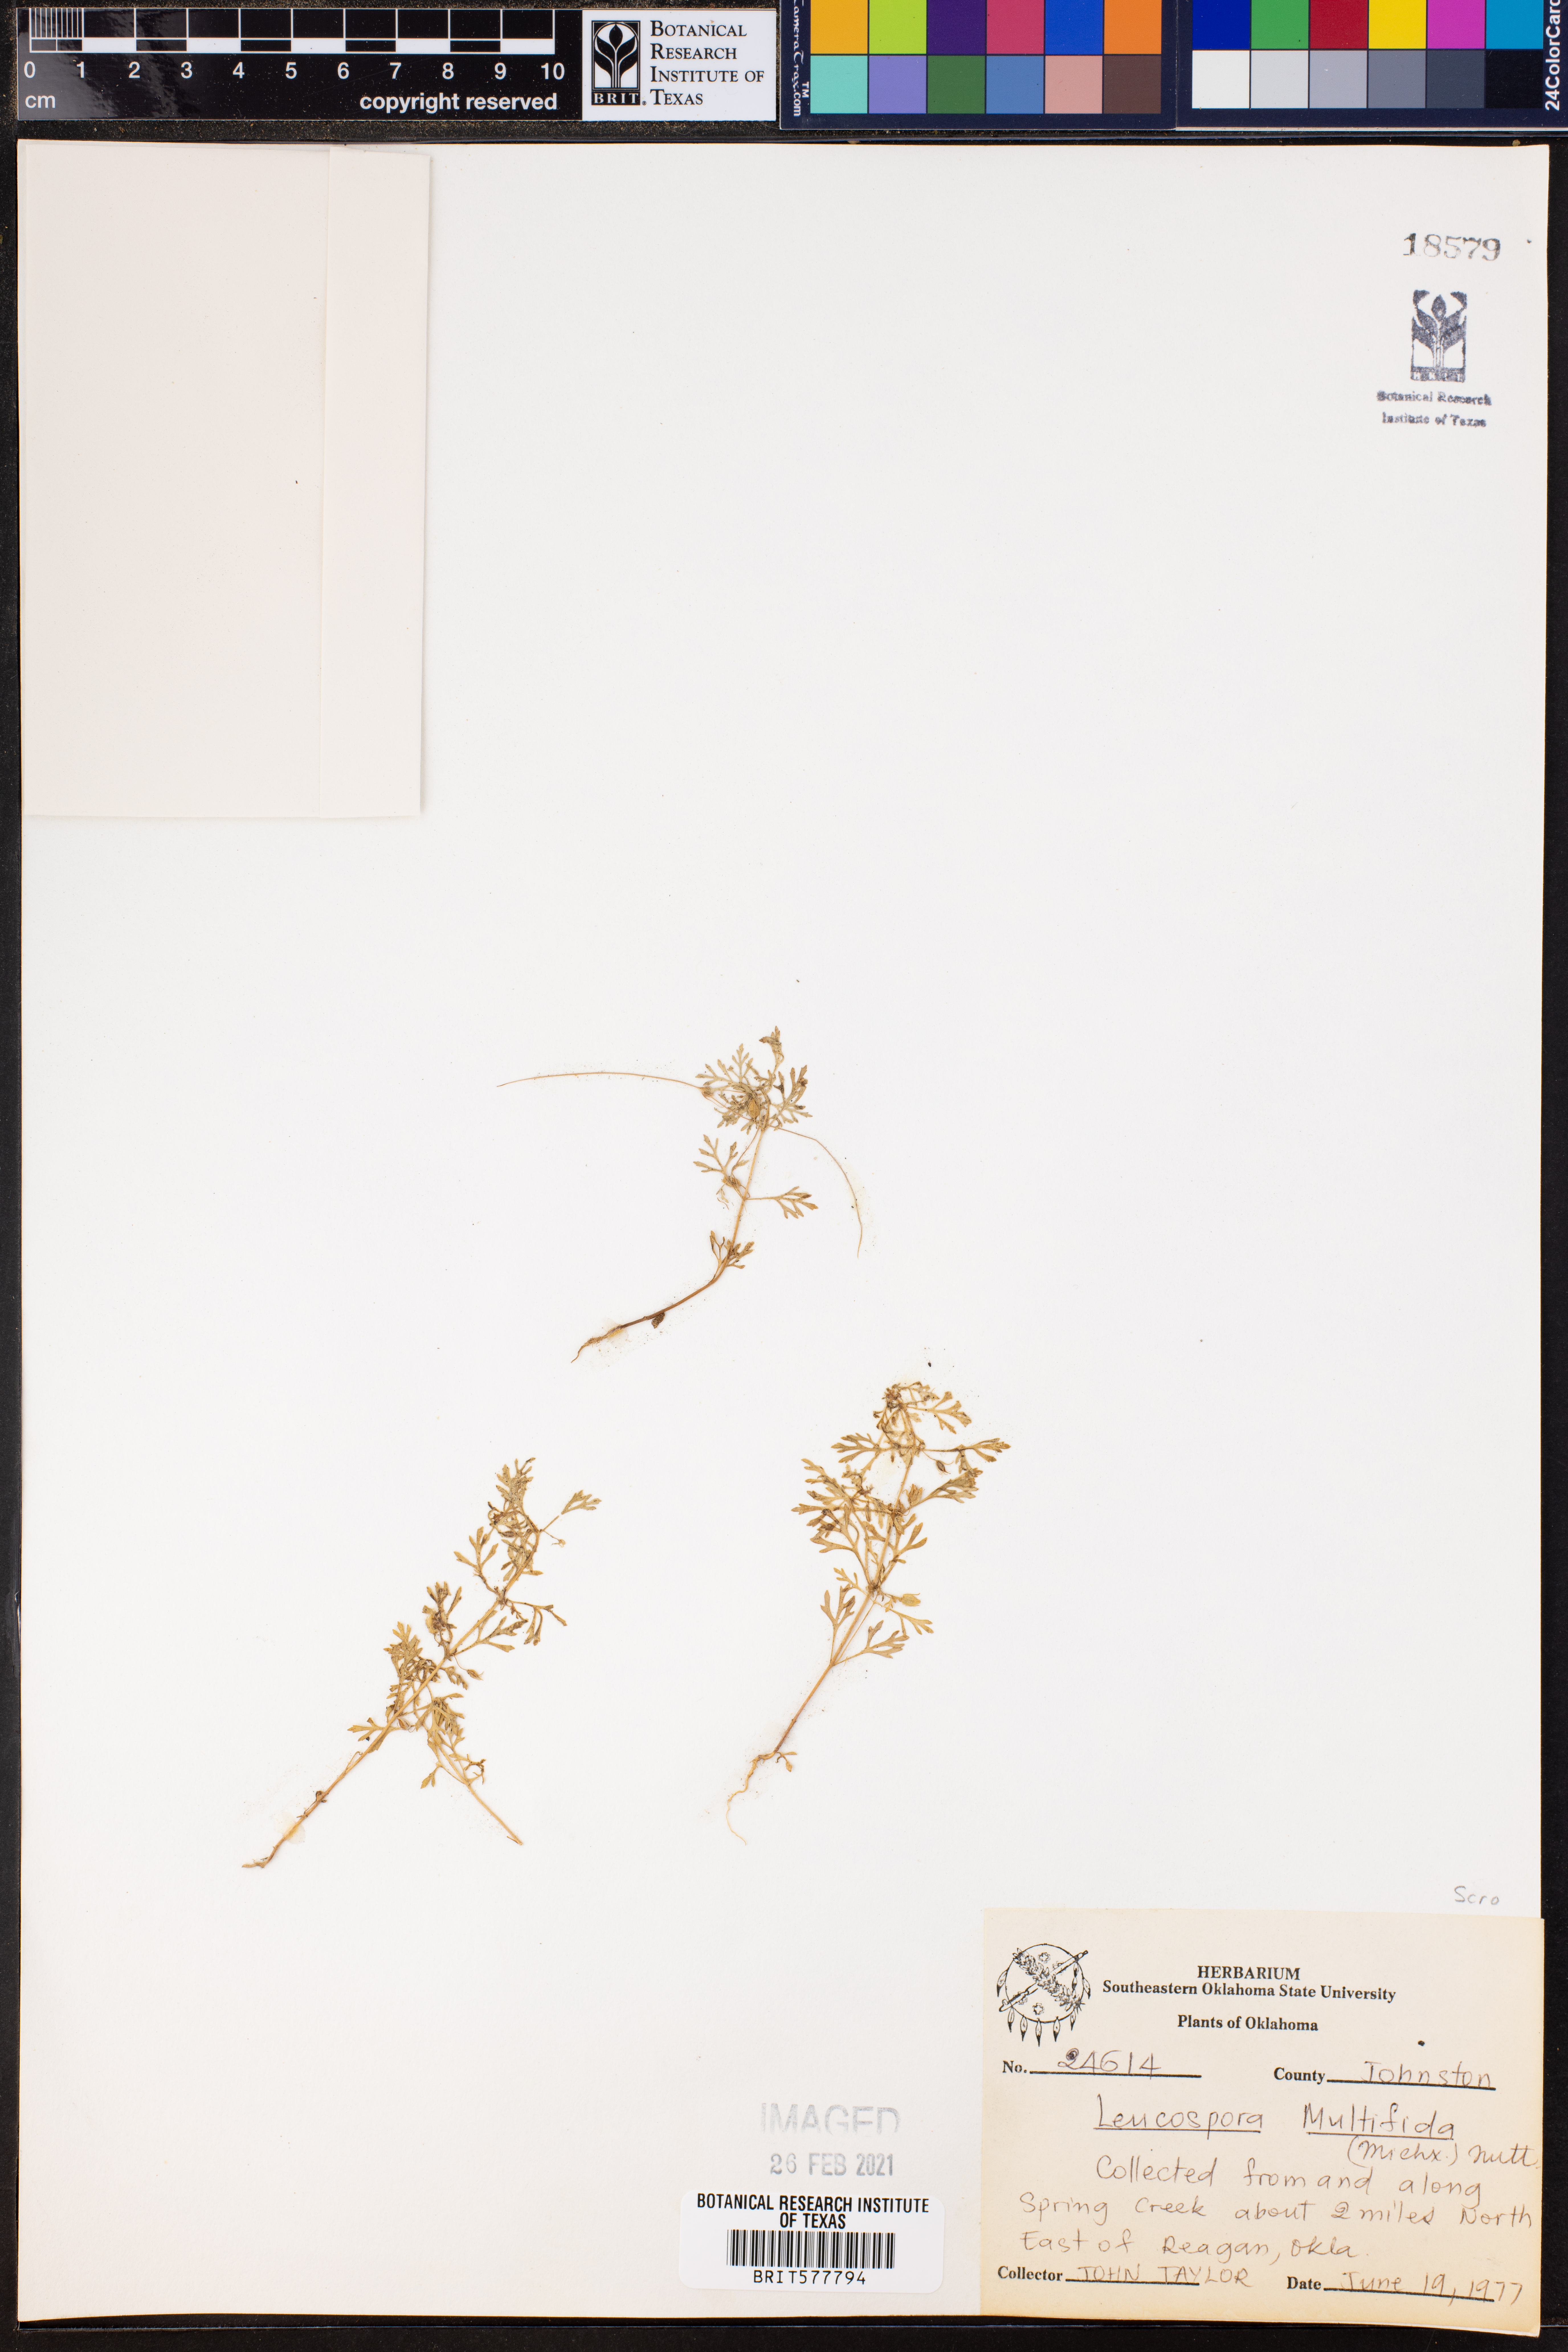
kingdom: Plantae
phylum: Tracheophyta
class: Magnoliopsida
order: Lamiales
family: Plantaginaceae
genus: Leucospora
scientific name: Leucospora multifida
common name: Narrow-leaf paleseed
